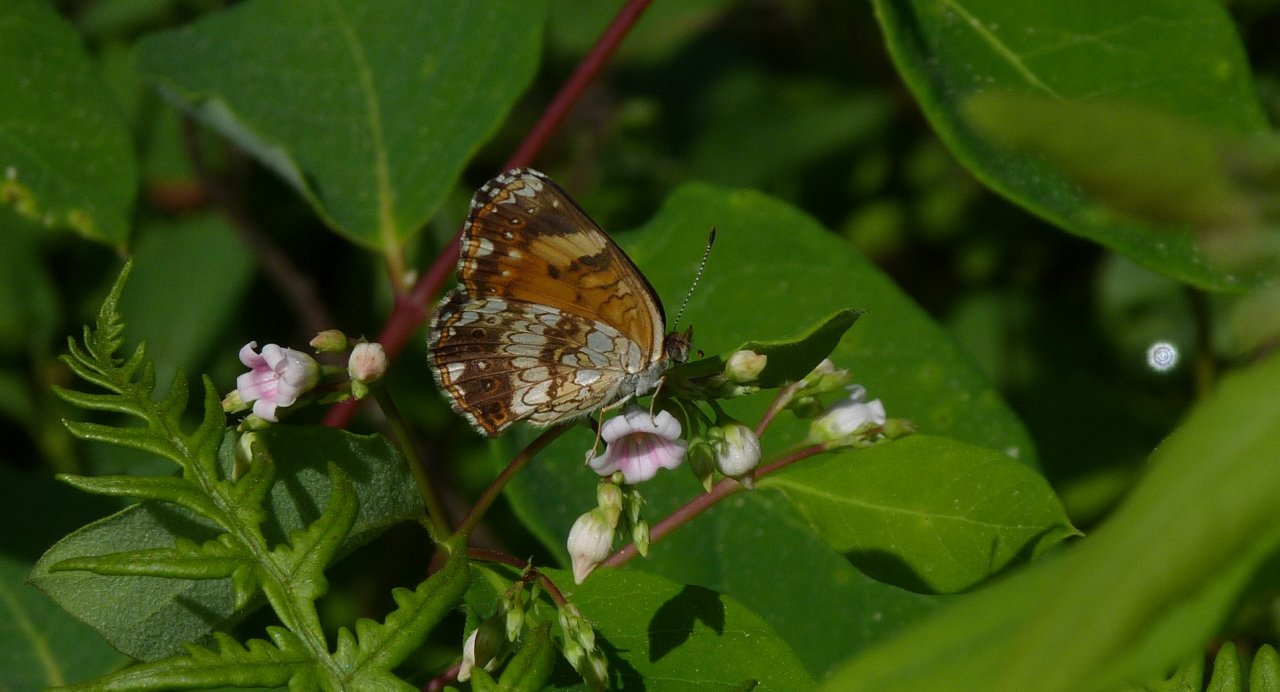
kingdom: Animalia
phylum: Arthropoda
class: Insecta
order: Lepidoptera
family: Nymphalidae
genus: Chlosyne
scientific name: Chlosyne nycteis
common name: Silvery Checkerspot
